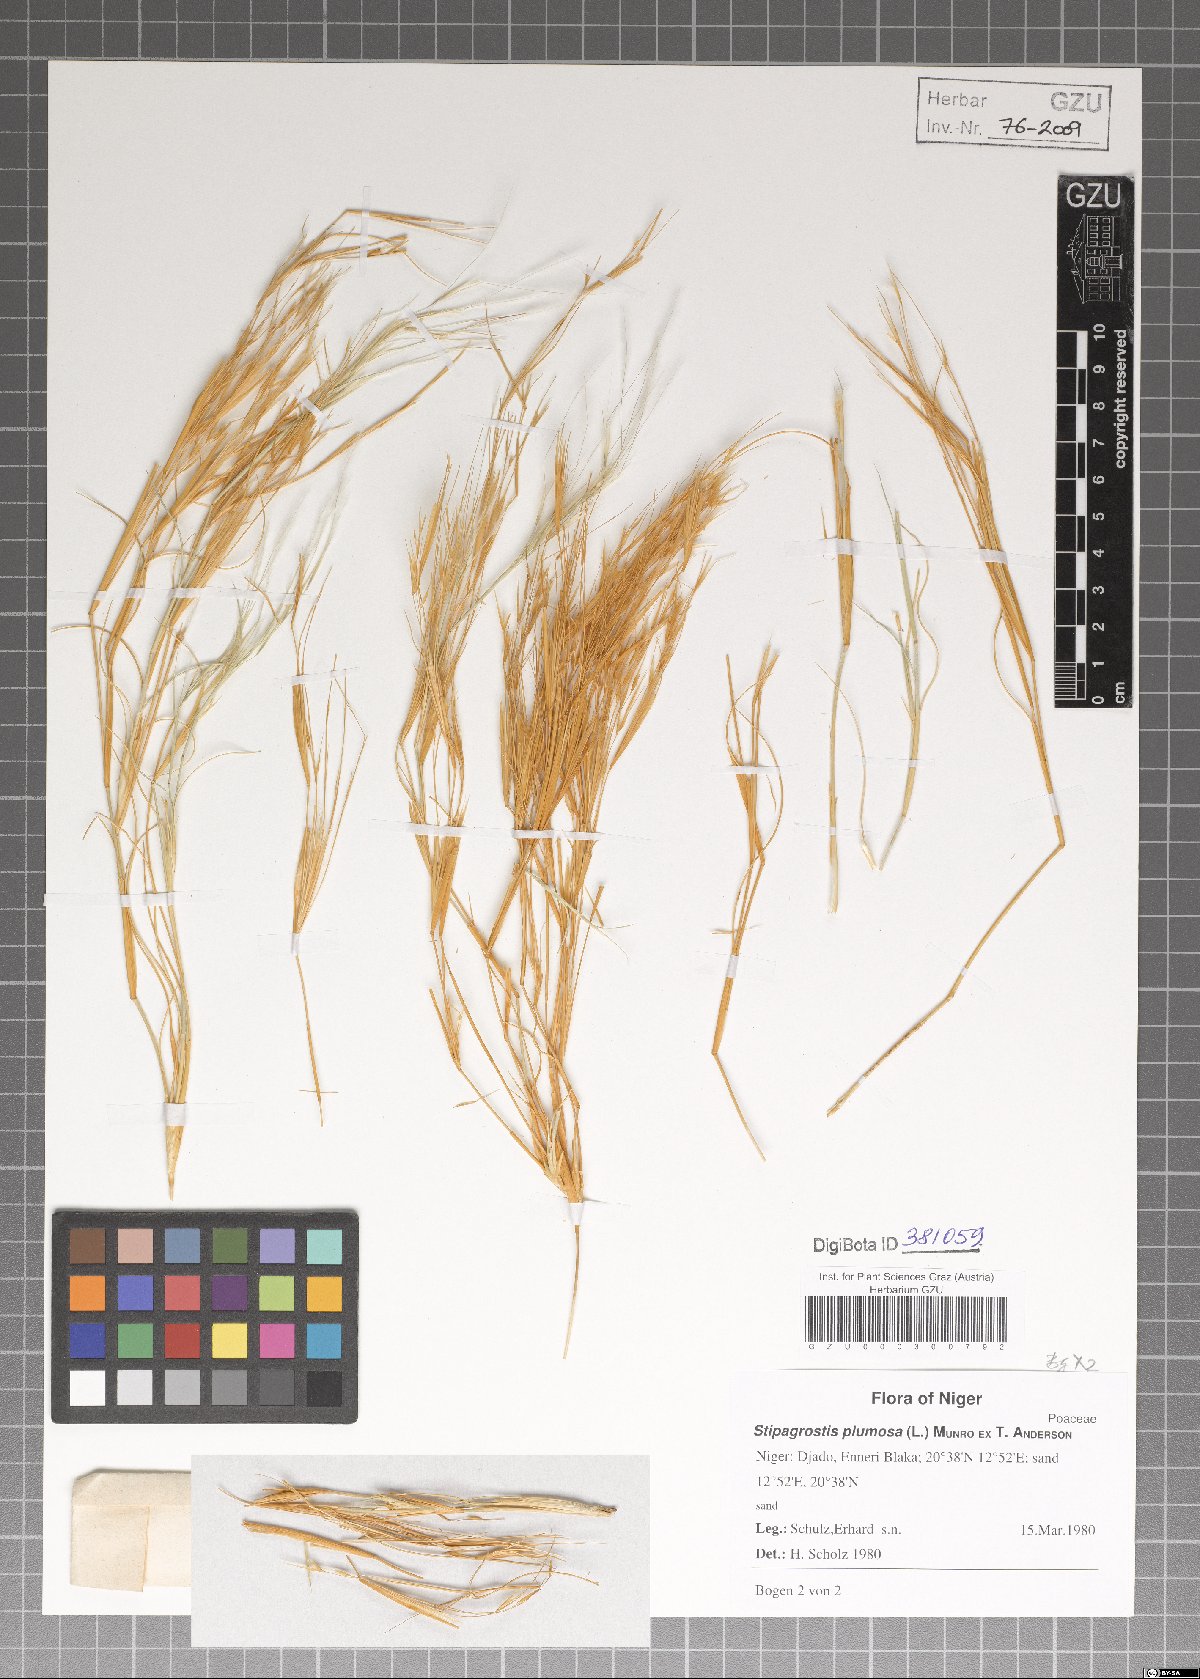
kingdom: Plantae
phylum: Tracheophyta
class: Liliopsida
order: Poales
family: Poaceae
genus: Stipagrostis
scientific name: Stipagrostis plumosa
